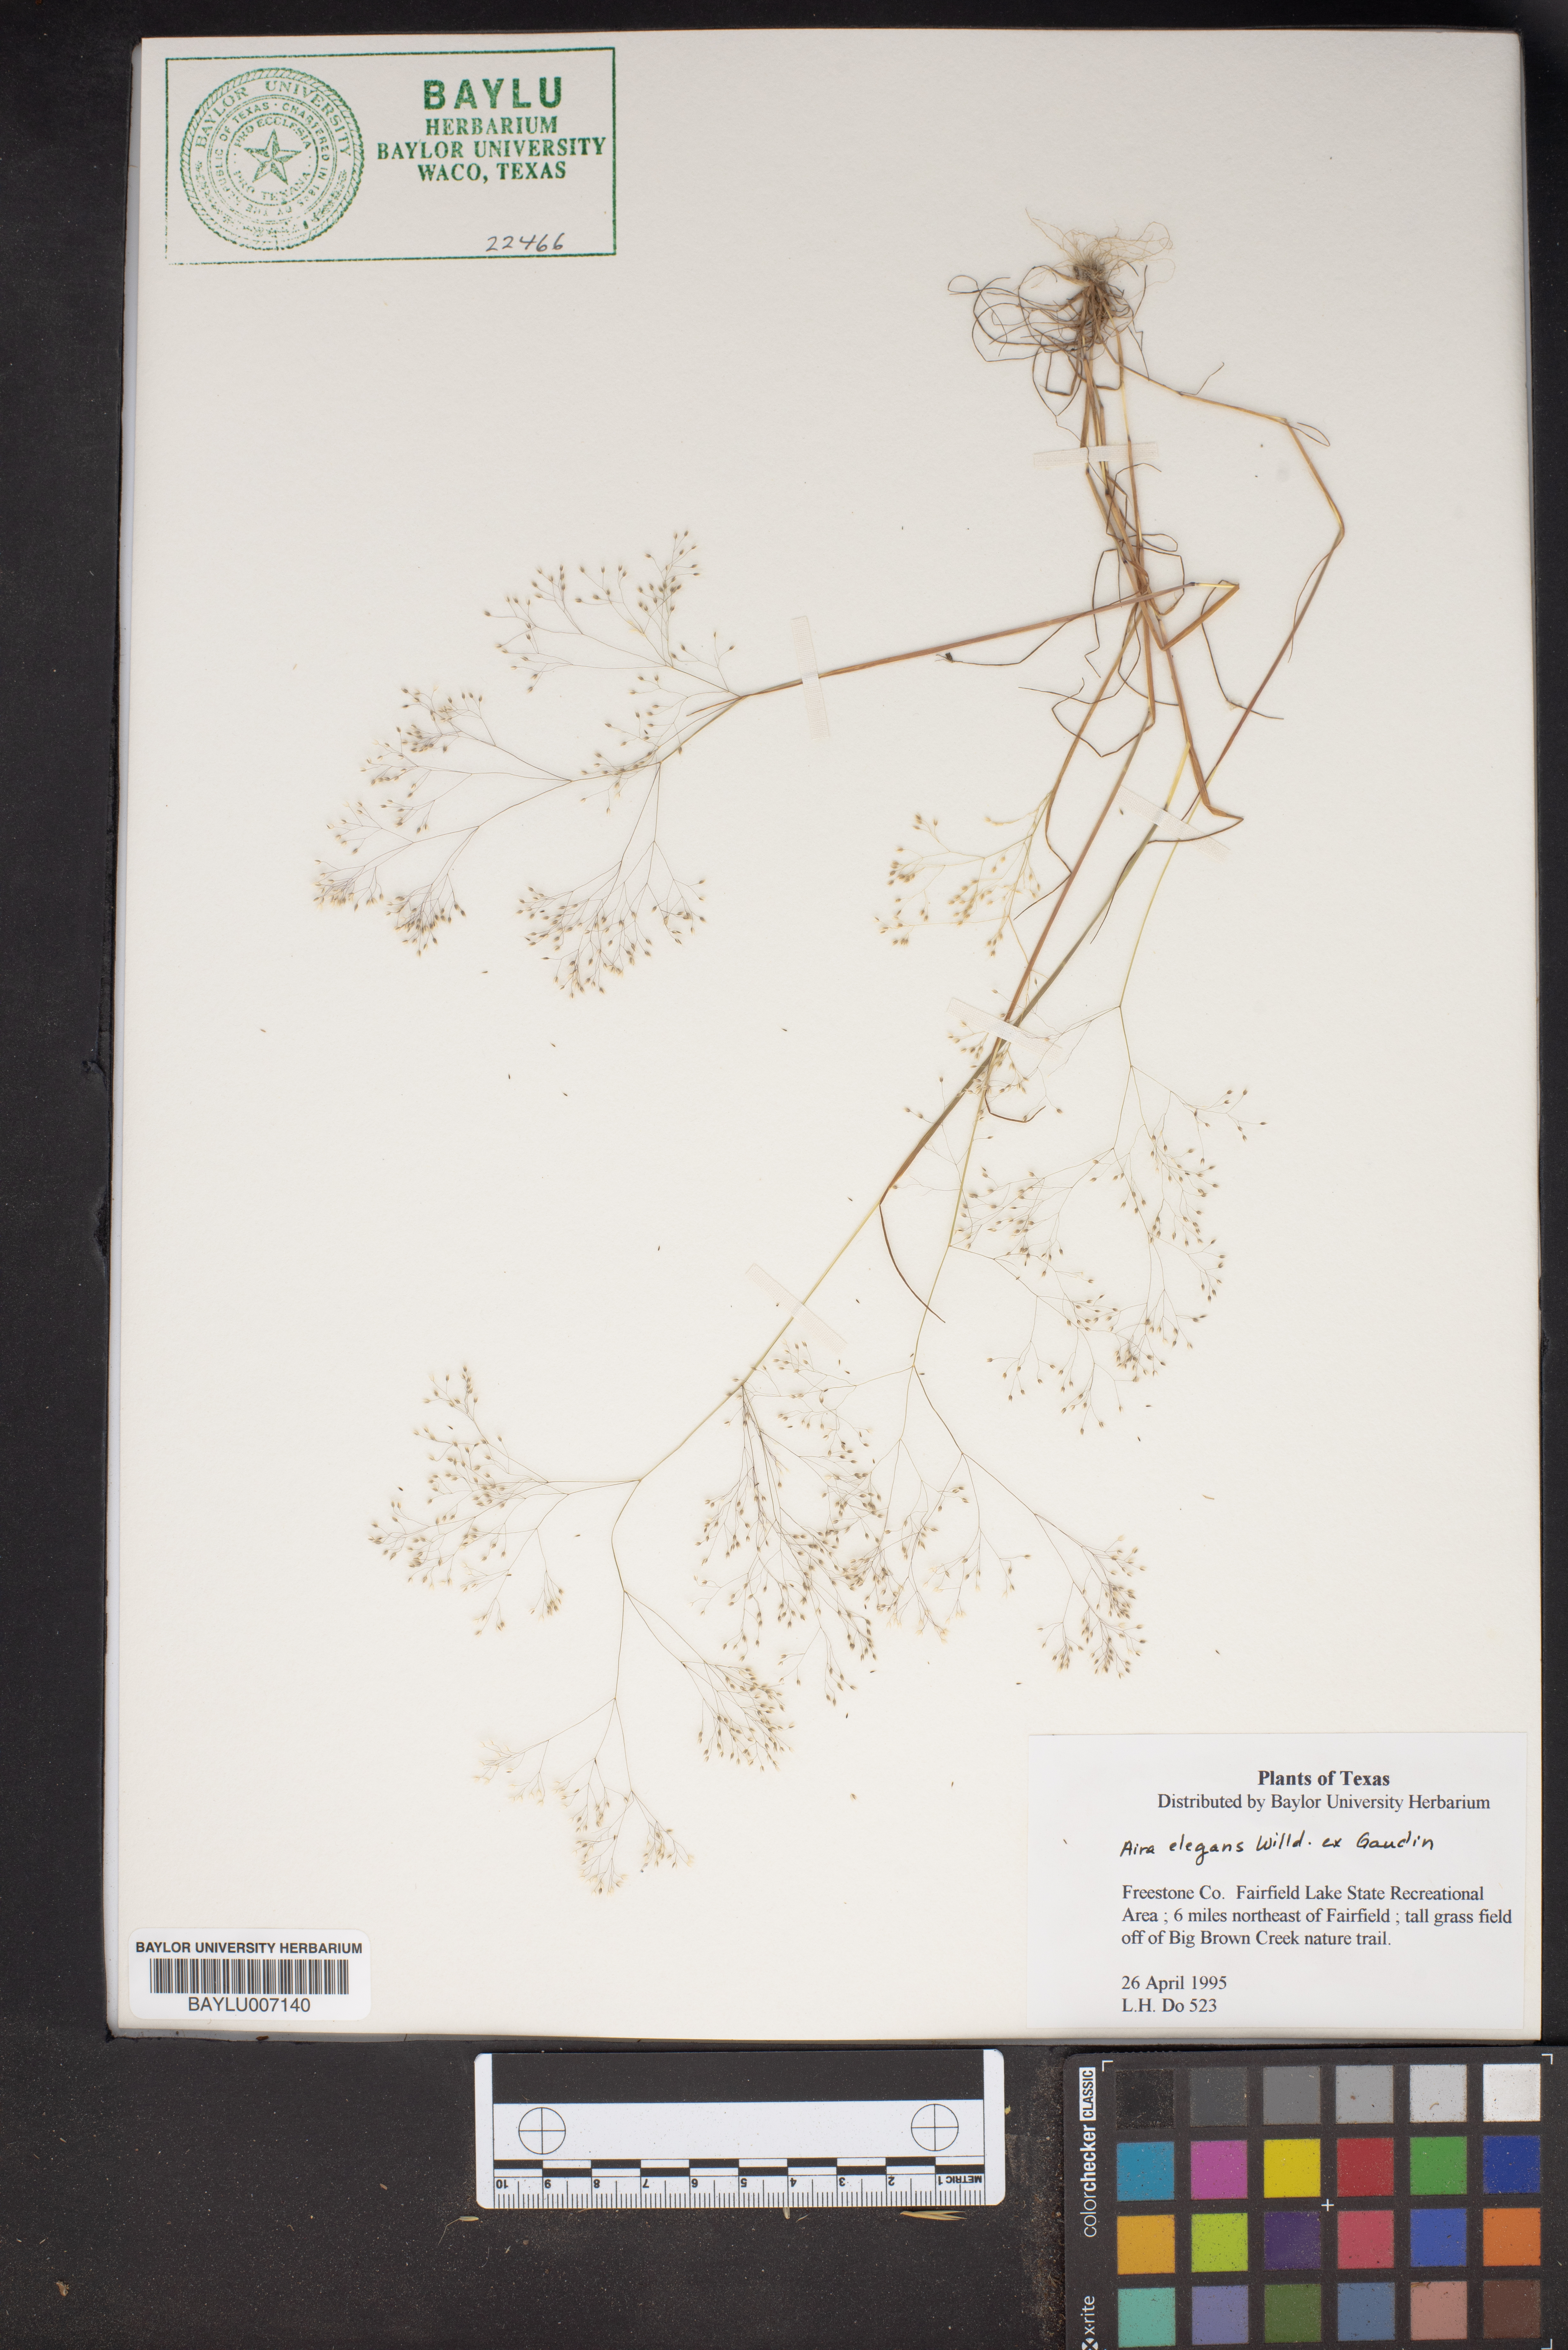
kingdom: Plantae
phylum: Tracheophyta
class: Liliopsida
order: Poales
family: Poaceae
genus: Aira
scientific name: Aira elegans
